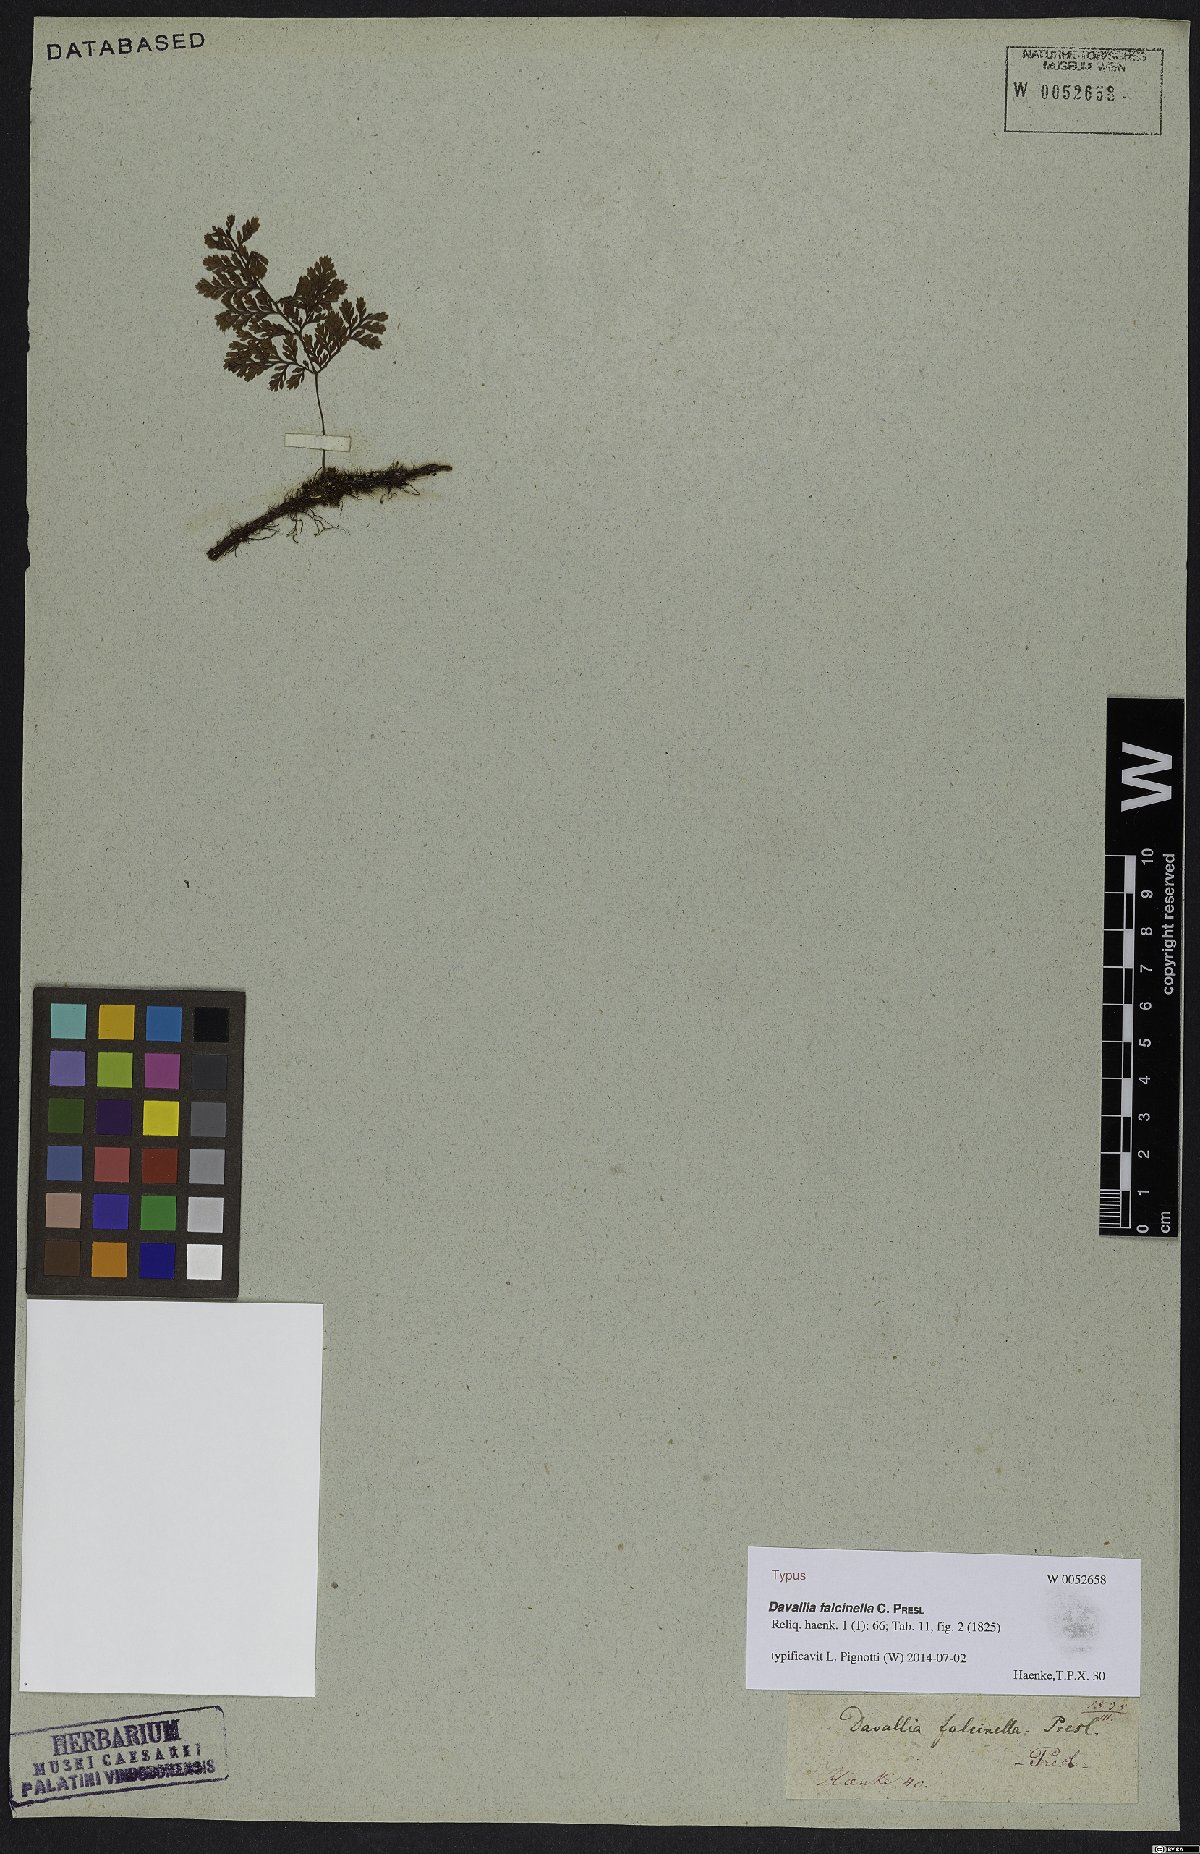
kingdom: Plantae
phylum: Tracheophyta
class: Polypodiopsida
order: Polypodiales
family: Davalliaceae
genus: Davallia
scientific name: Davallia falcinella
